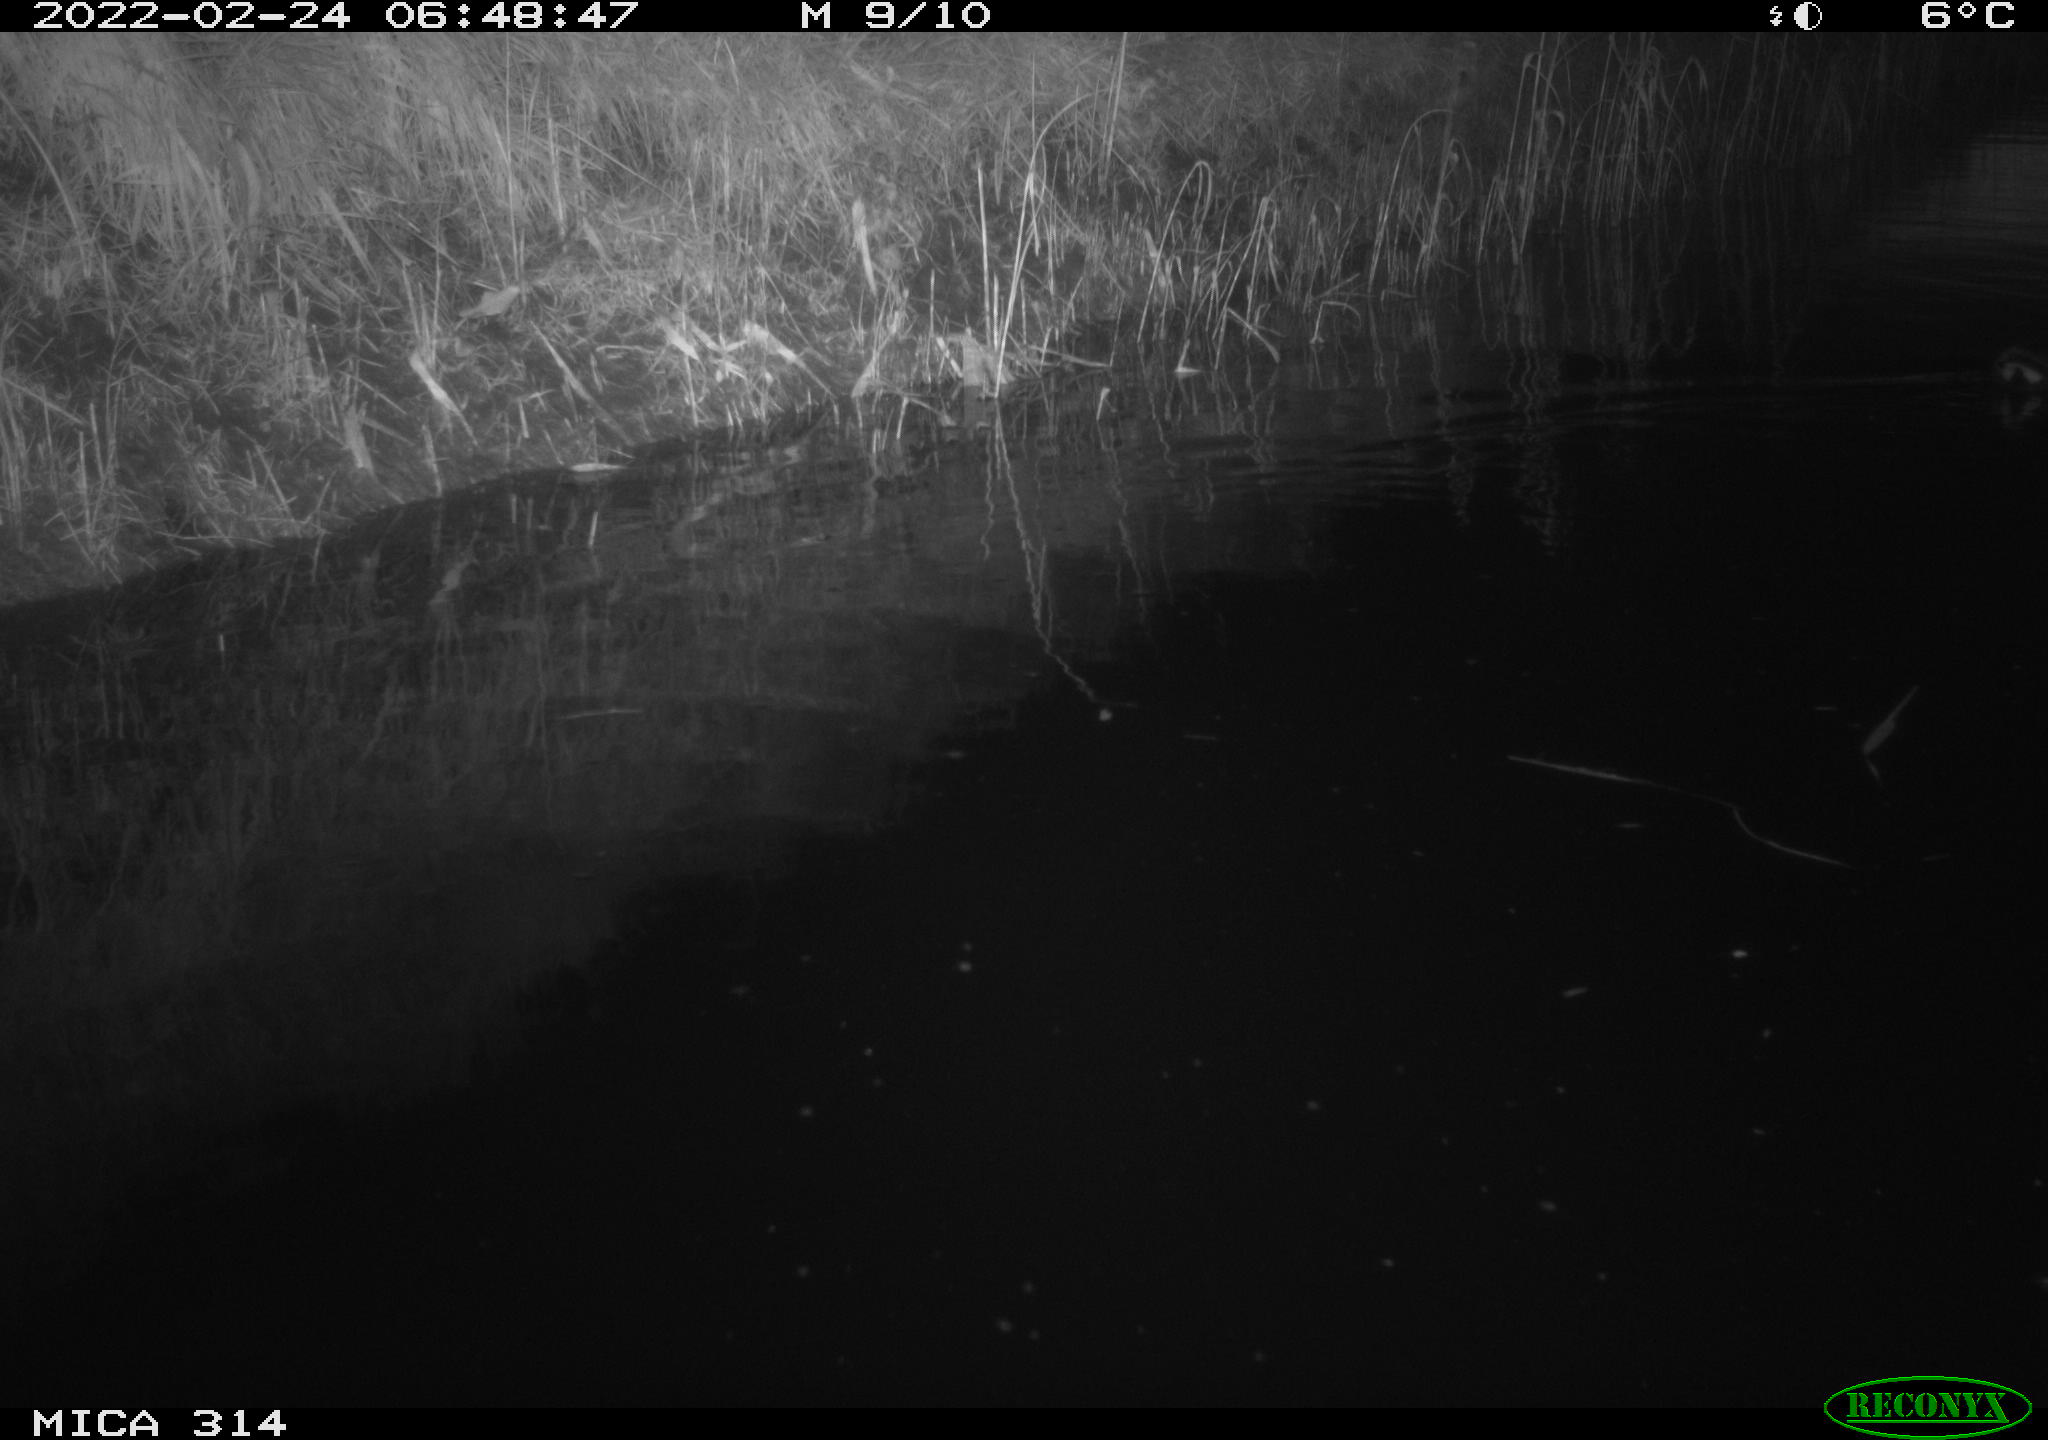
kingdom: Animalia
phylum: Chordata
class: Aves
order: Gruiformes
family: Rallidae
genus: Gallinula
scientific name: Gallinula chloropus
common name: Common moorhen
